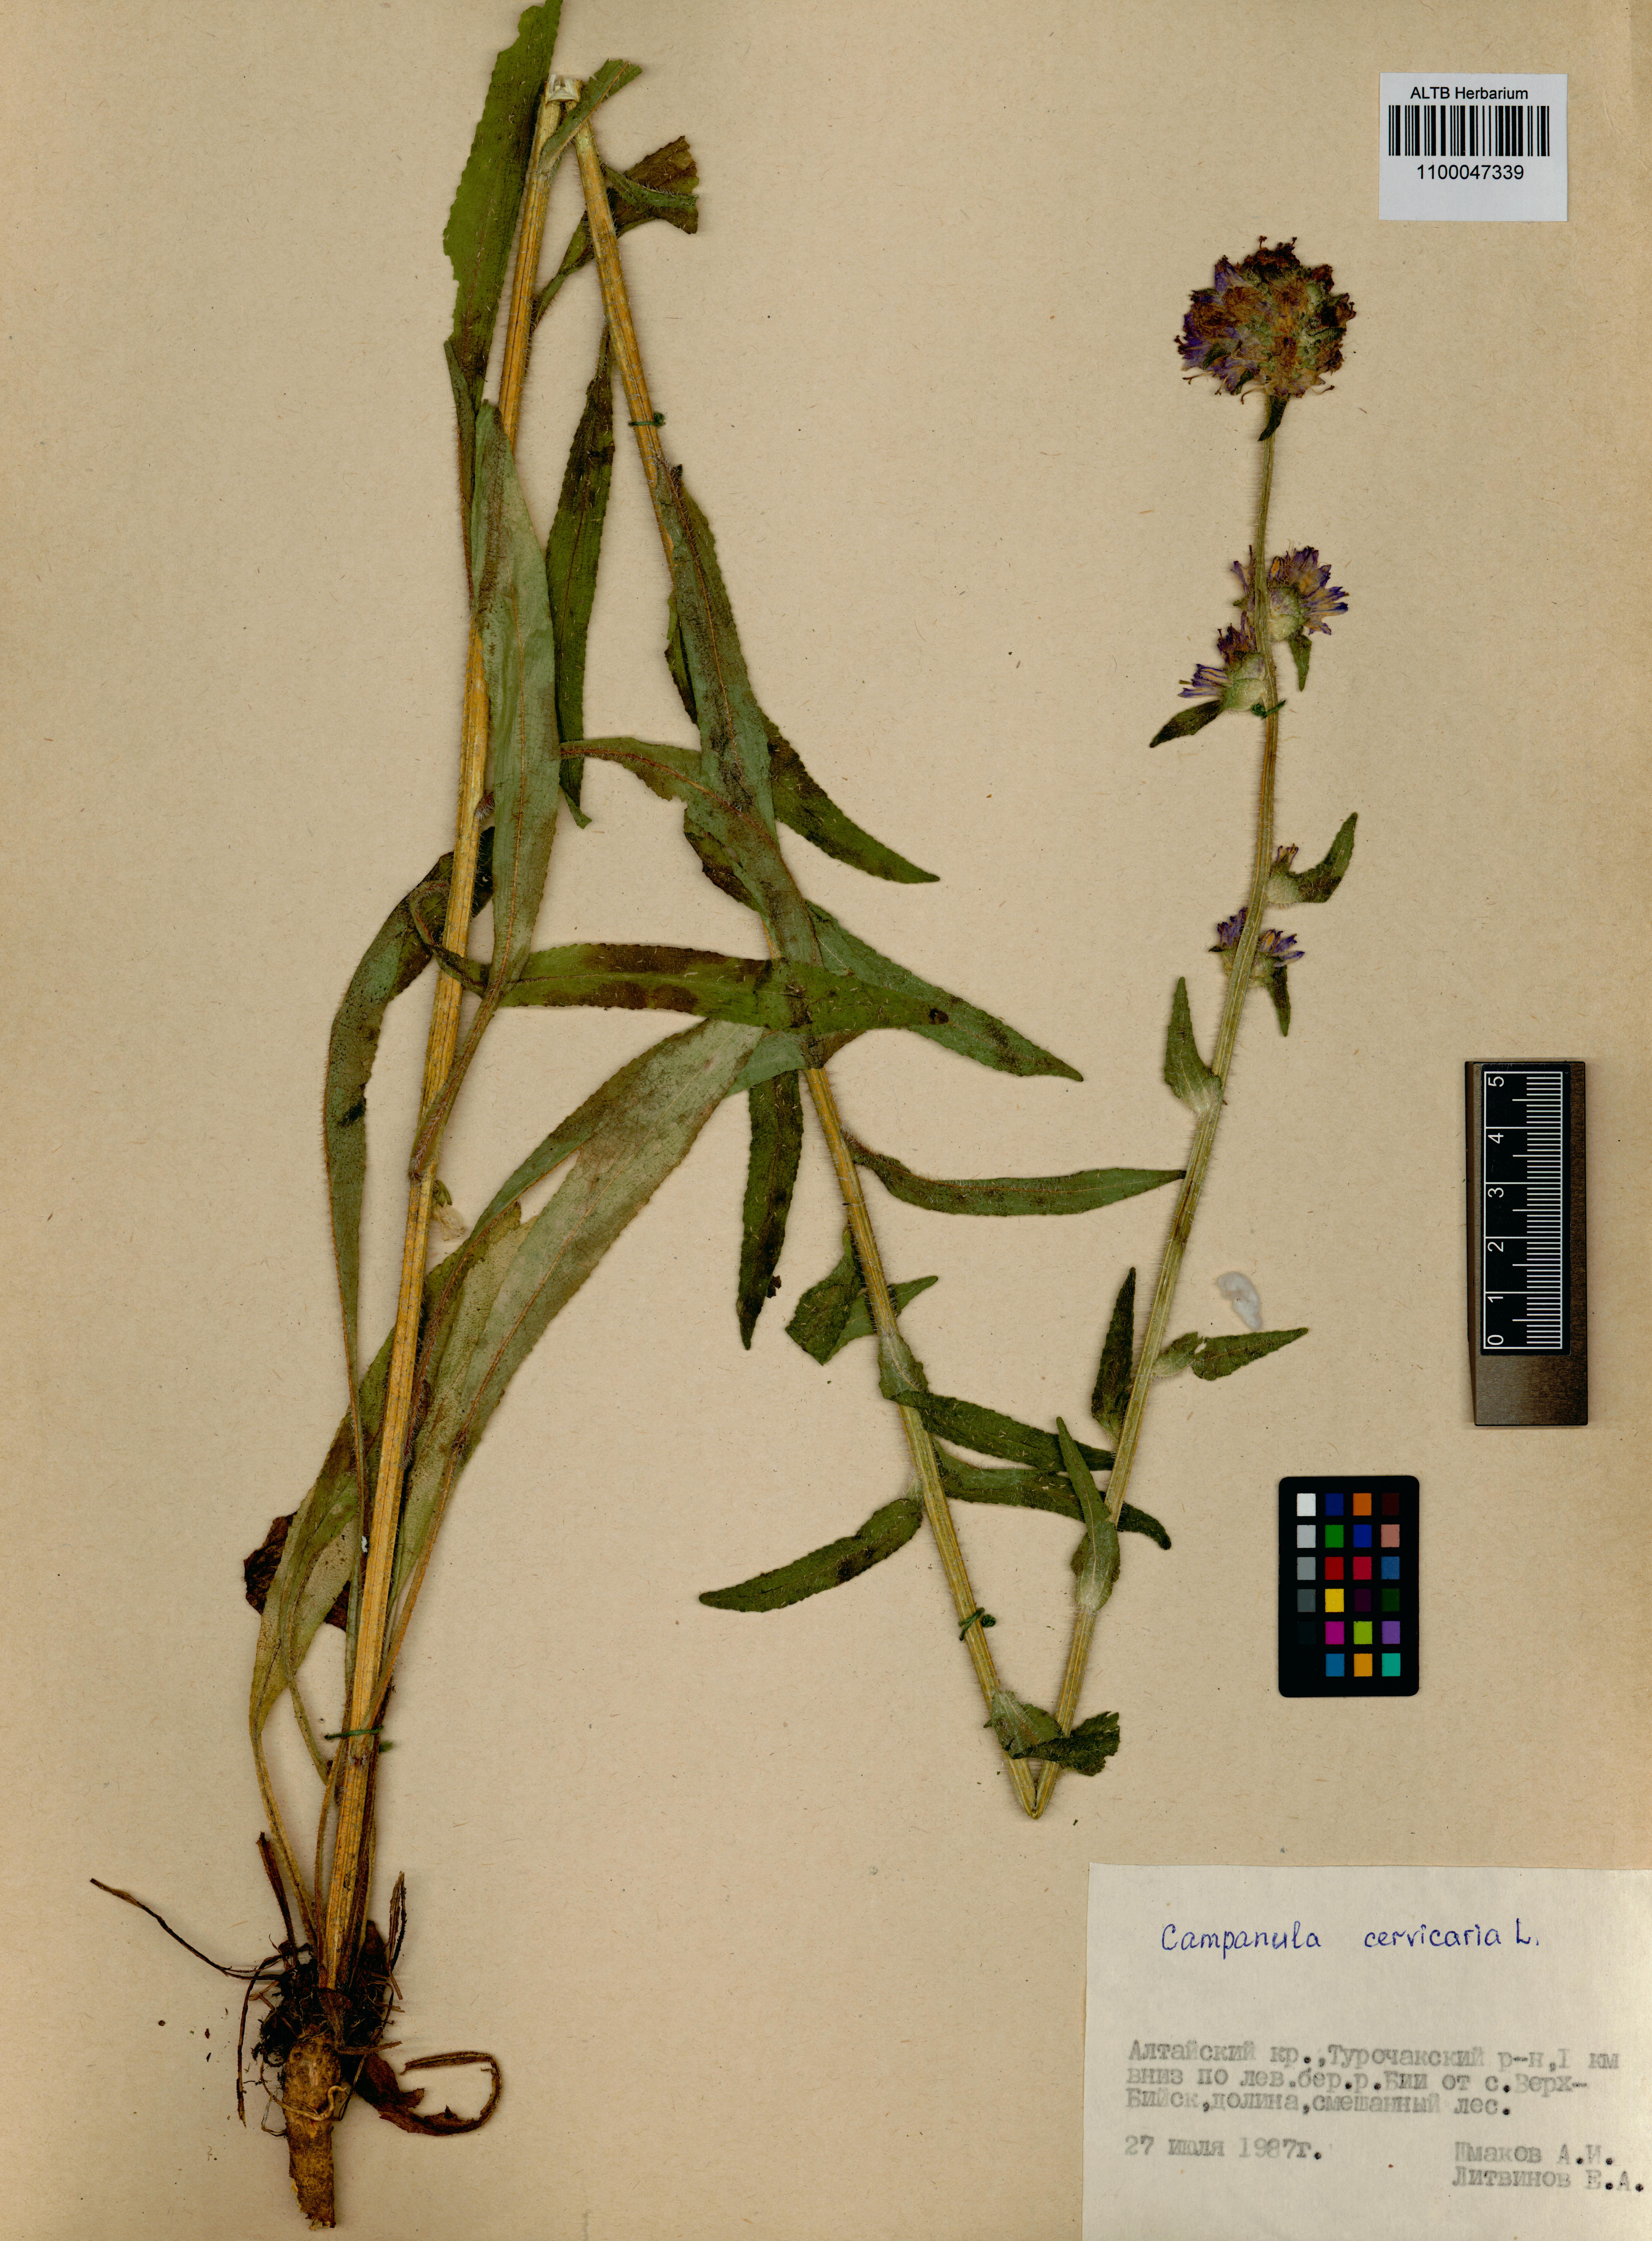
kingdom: Plantae
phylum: Tracheophyta
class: Magnoliopsida
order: Asterales
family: Campanulaceae
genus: Campanula
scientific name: Campanula cervicaria
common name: Bristly bellflower
